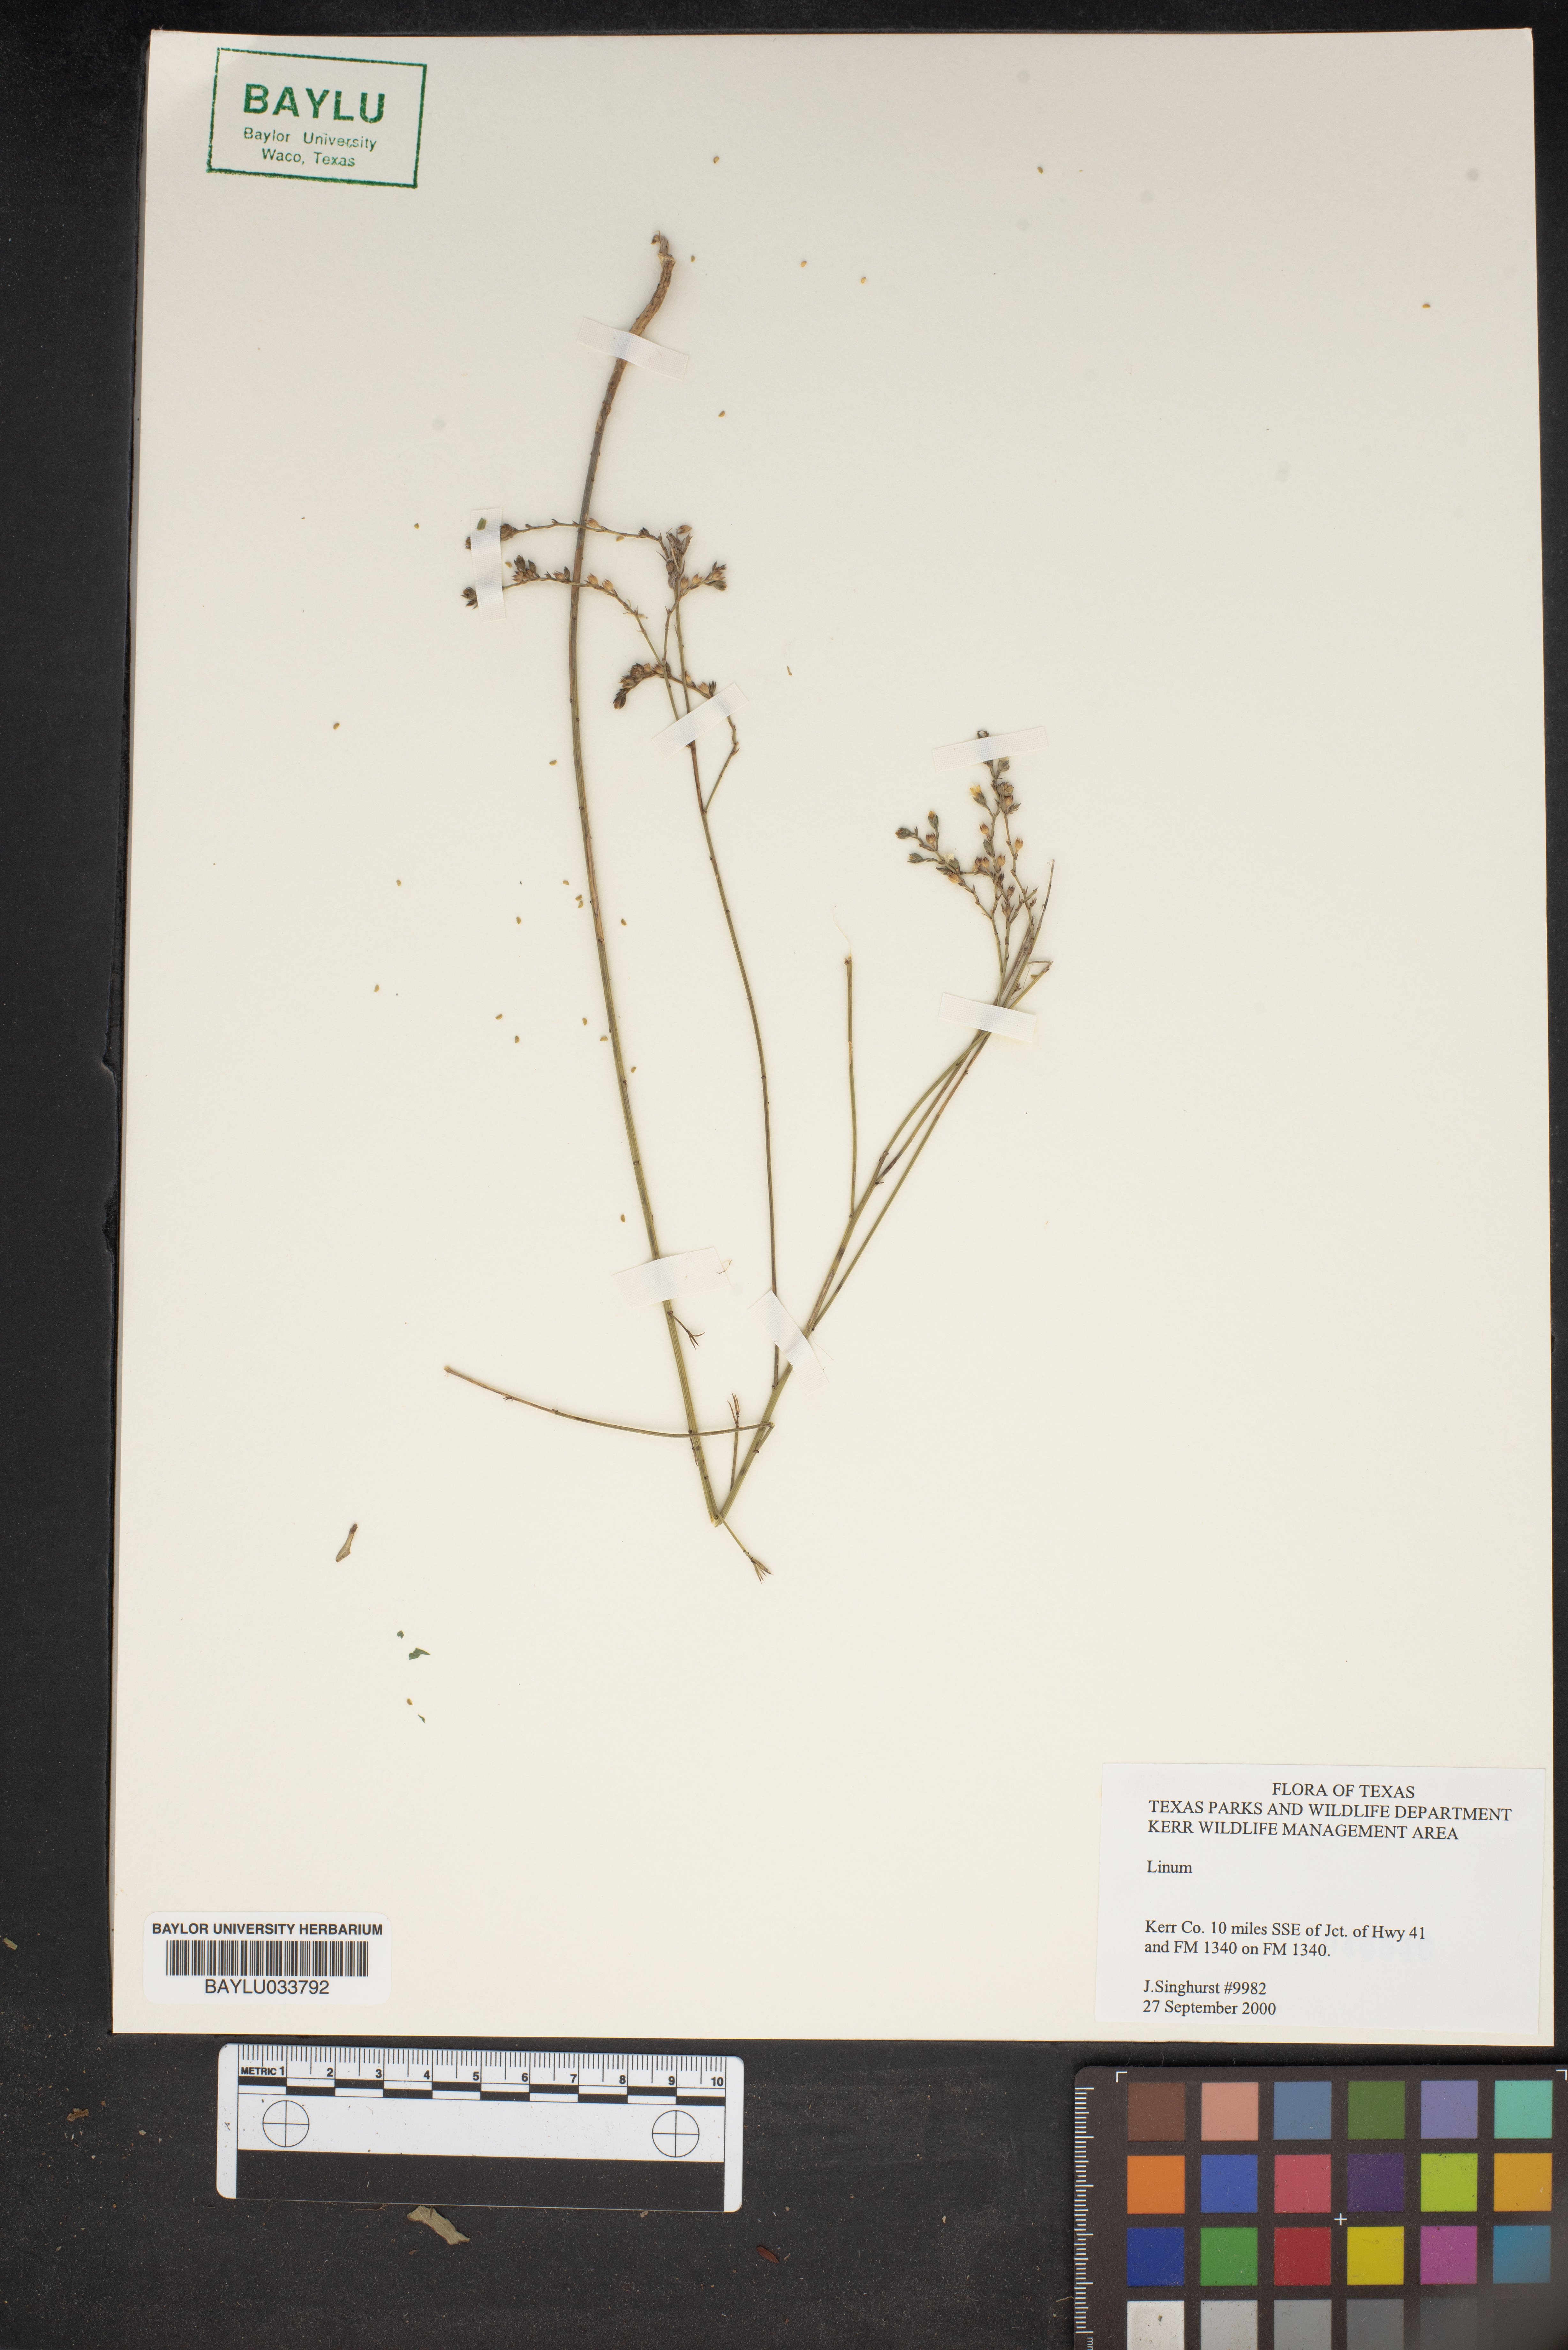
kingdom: Plantae
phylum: Tracheophyta
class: Magnoliopsida
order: Malpighiales
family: Linaceae
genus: Linum
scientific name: Linum
